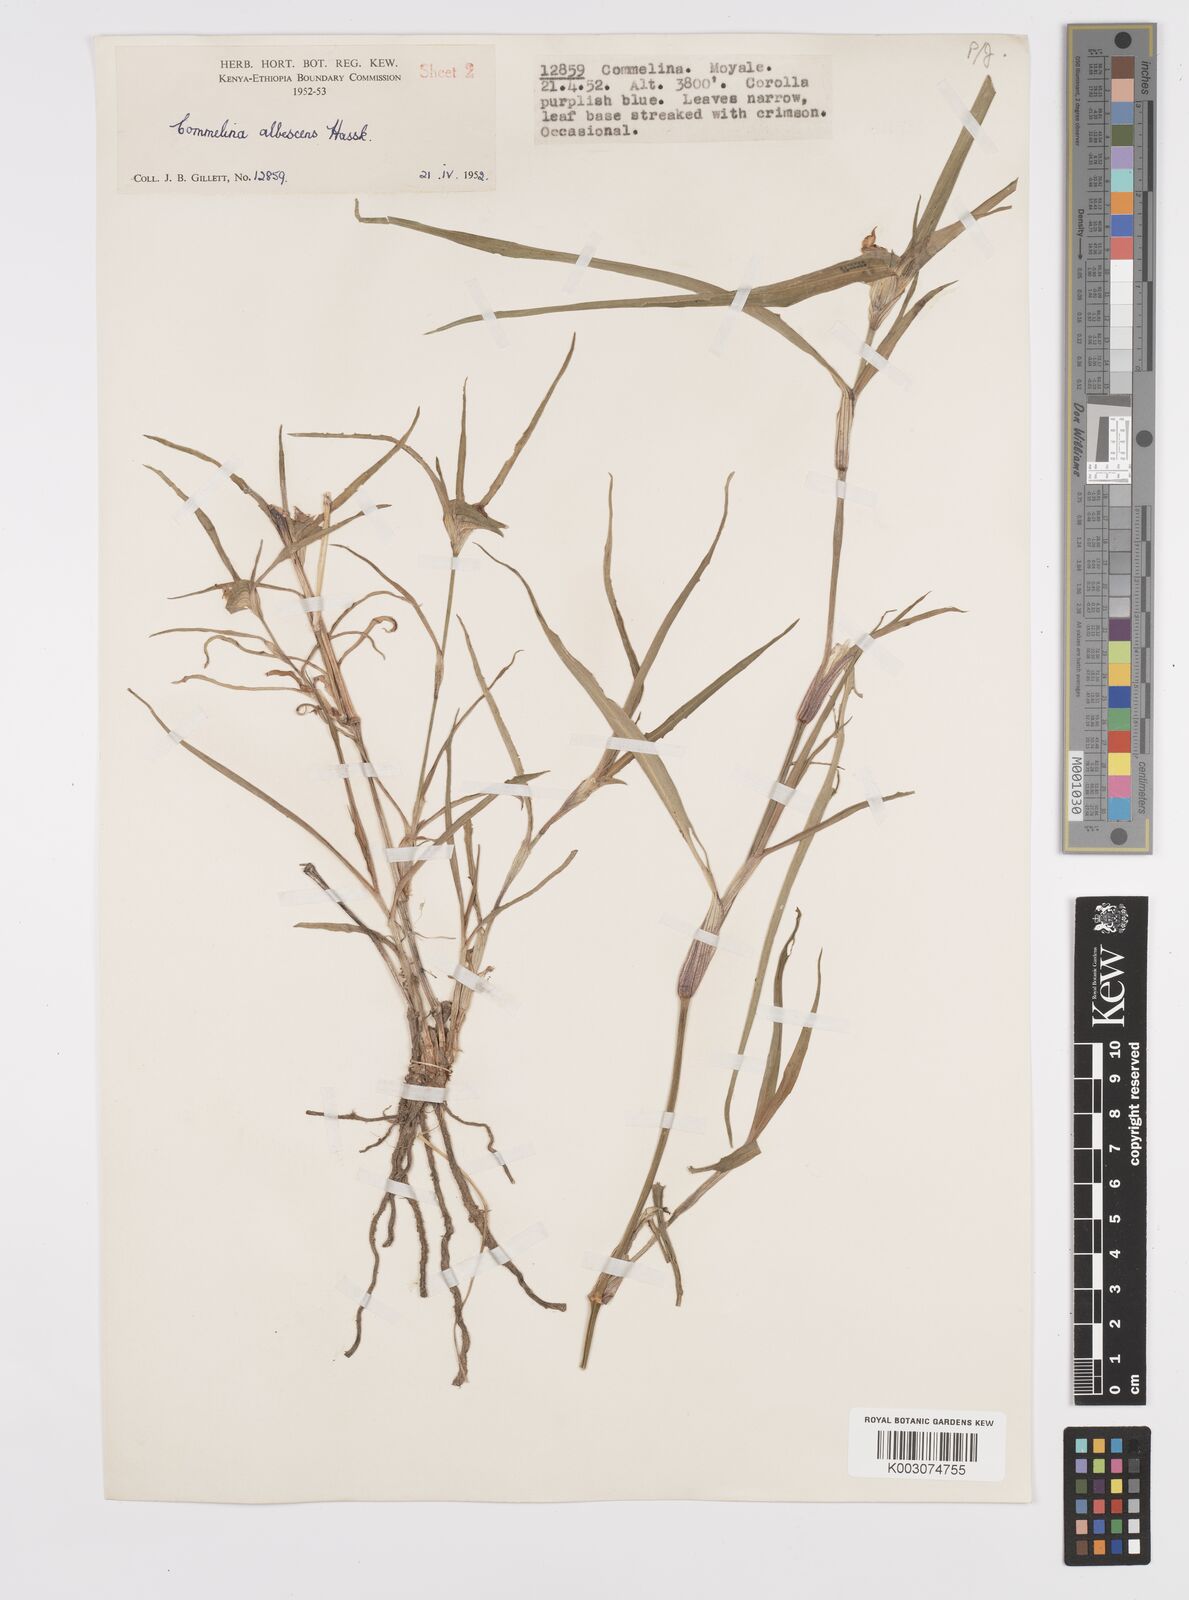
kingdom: Plantae
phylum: Tracheophyta
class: Liliopsida
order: Commelinales
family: Commelinaceae
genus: Commelina
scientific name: Commelina albescens
